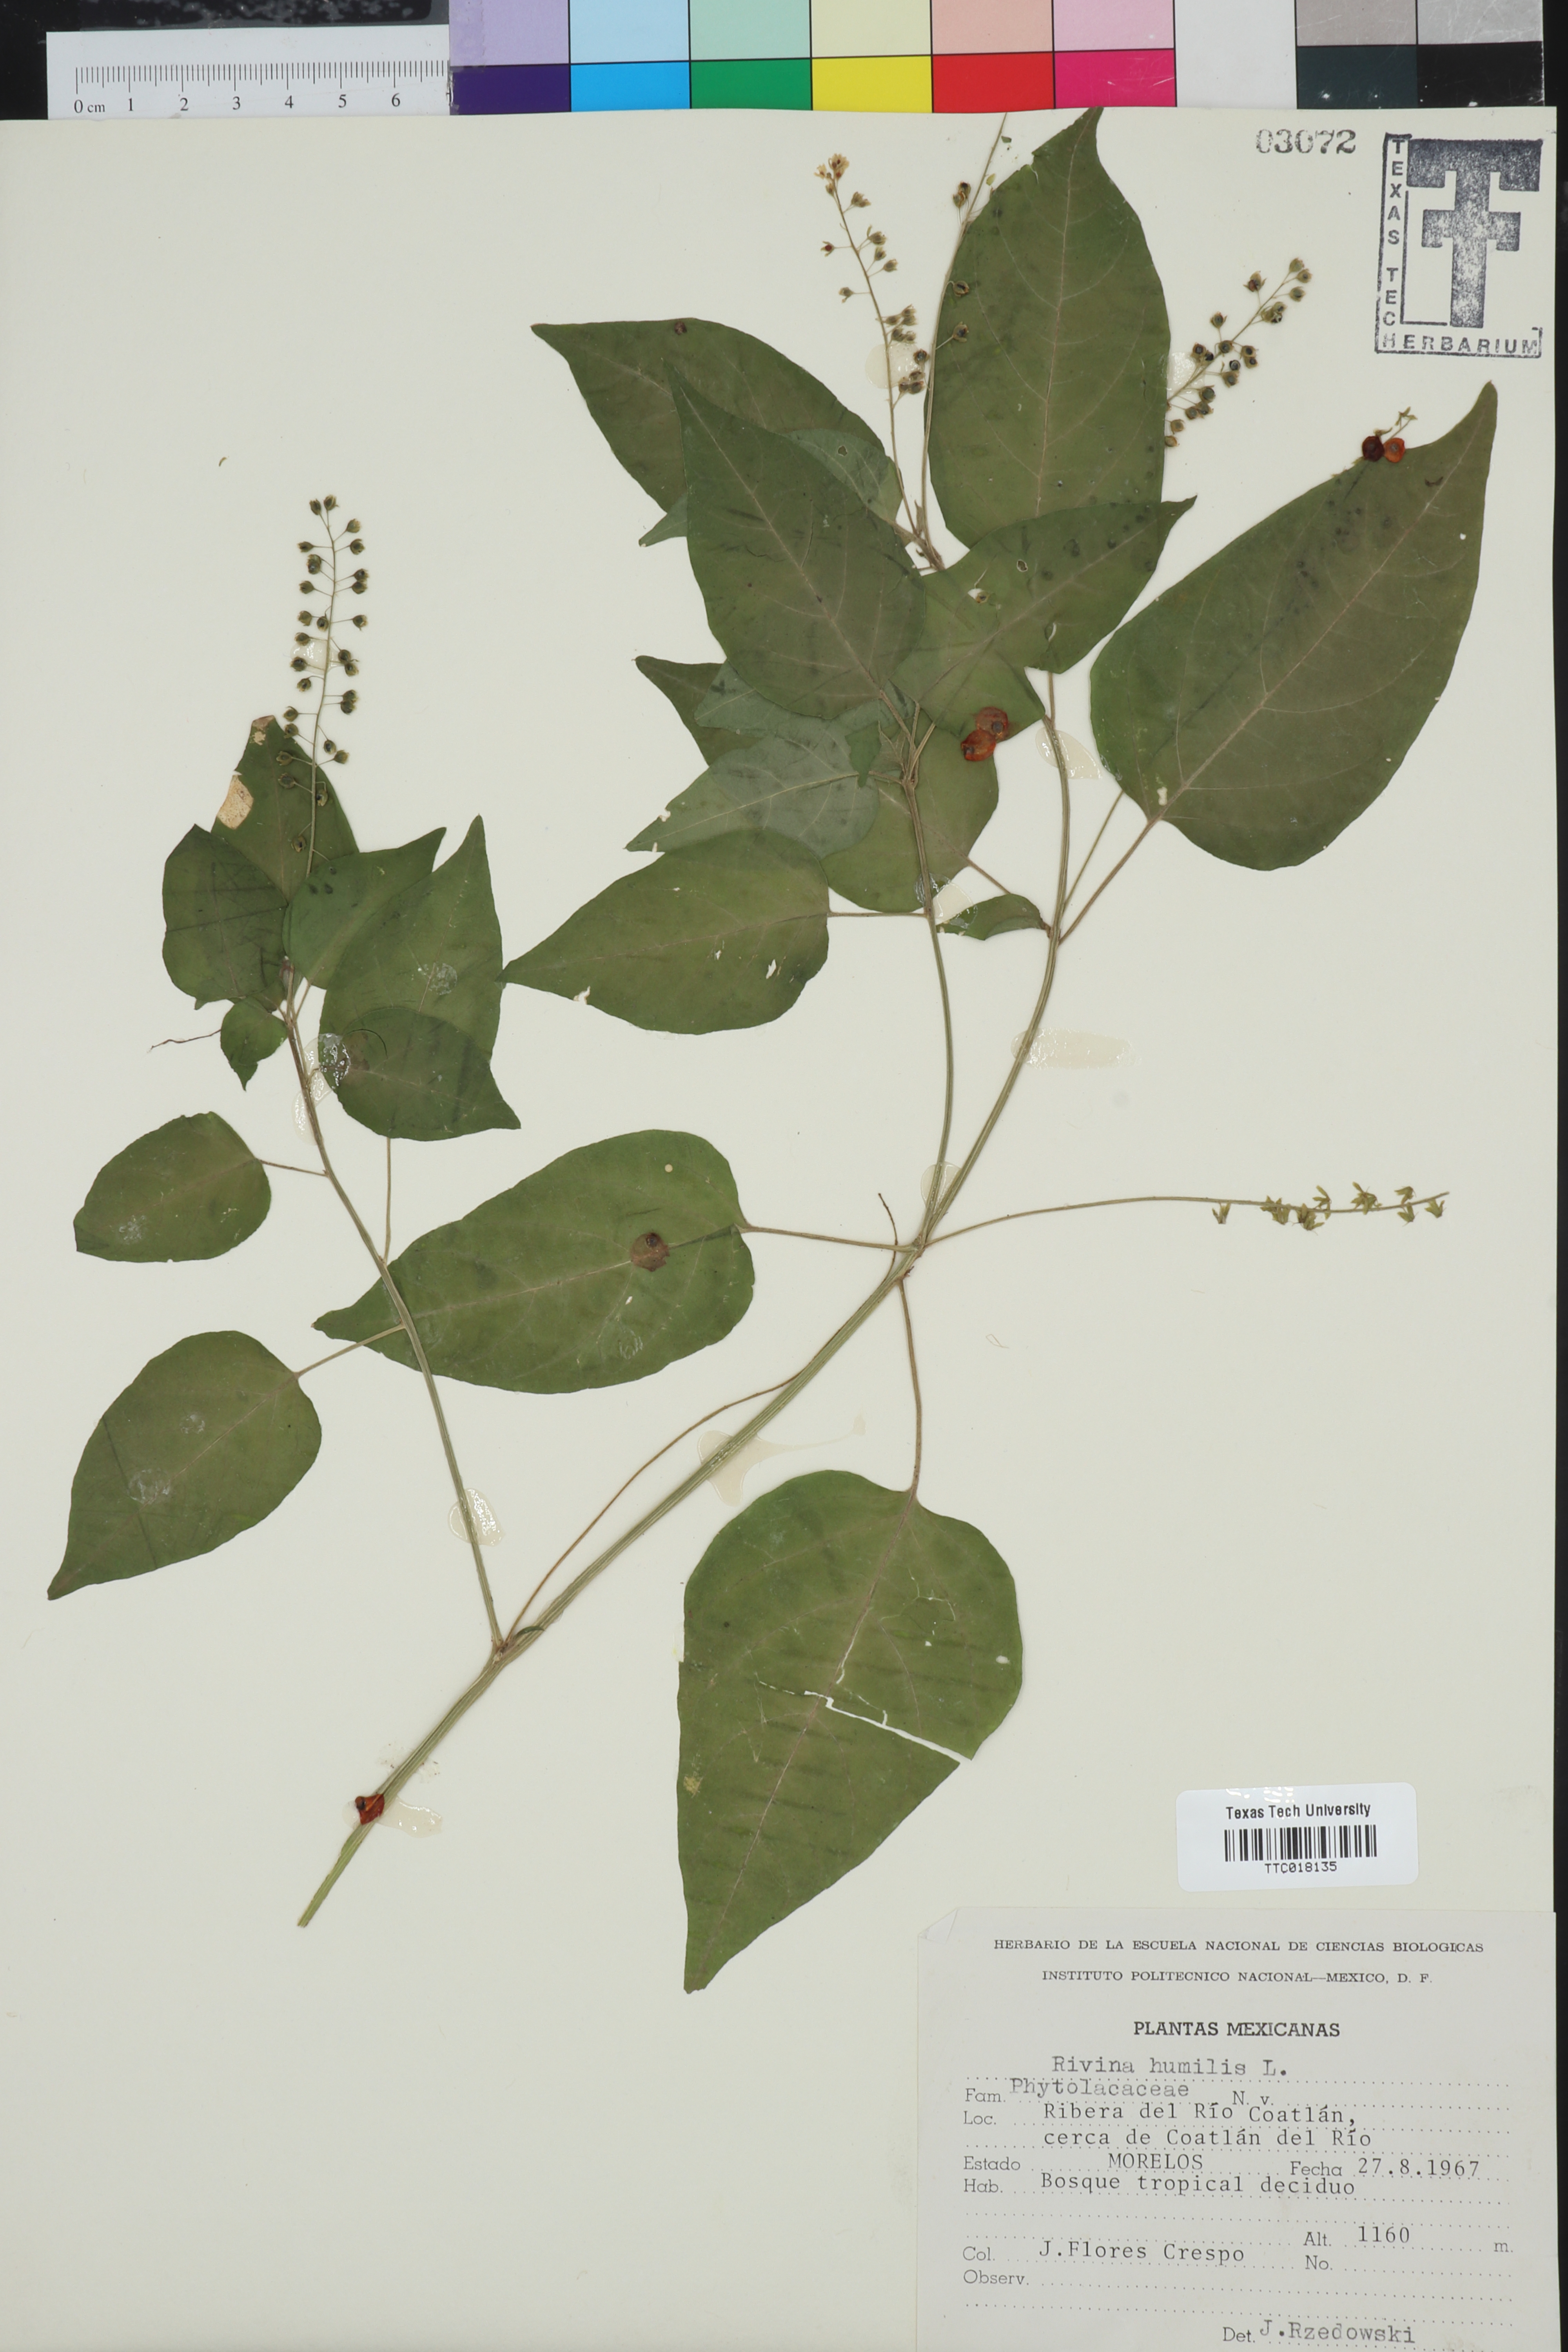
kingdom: Plantae
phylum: Tracheophyta
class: Magnoliopsida
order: Caryophyllales
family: Phytolaccaceae
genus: Rivina
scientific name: Rivina humilis
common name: Rougeplant
